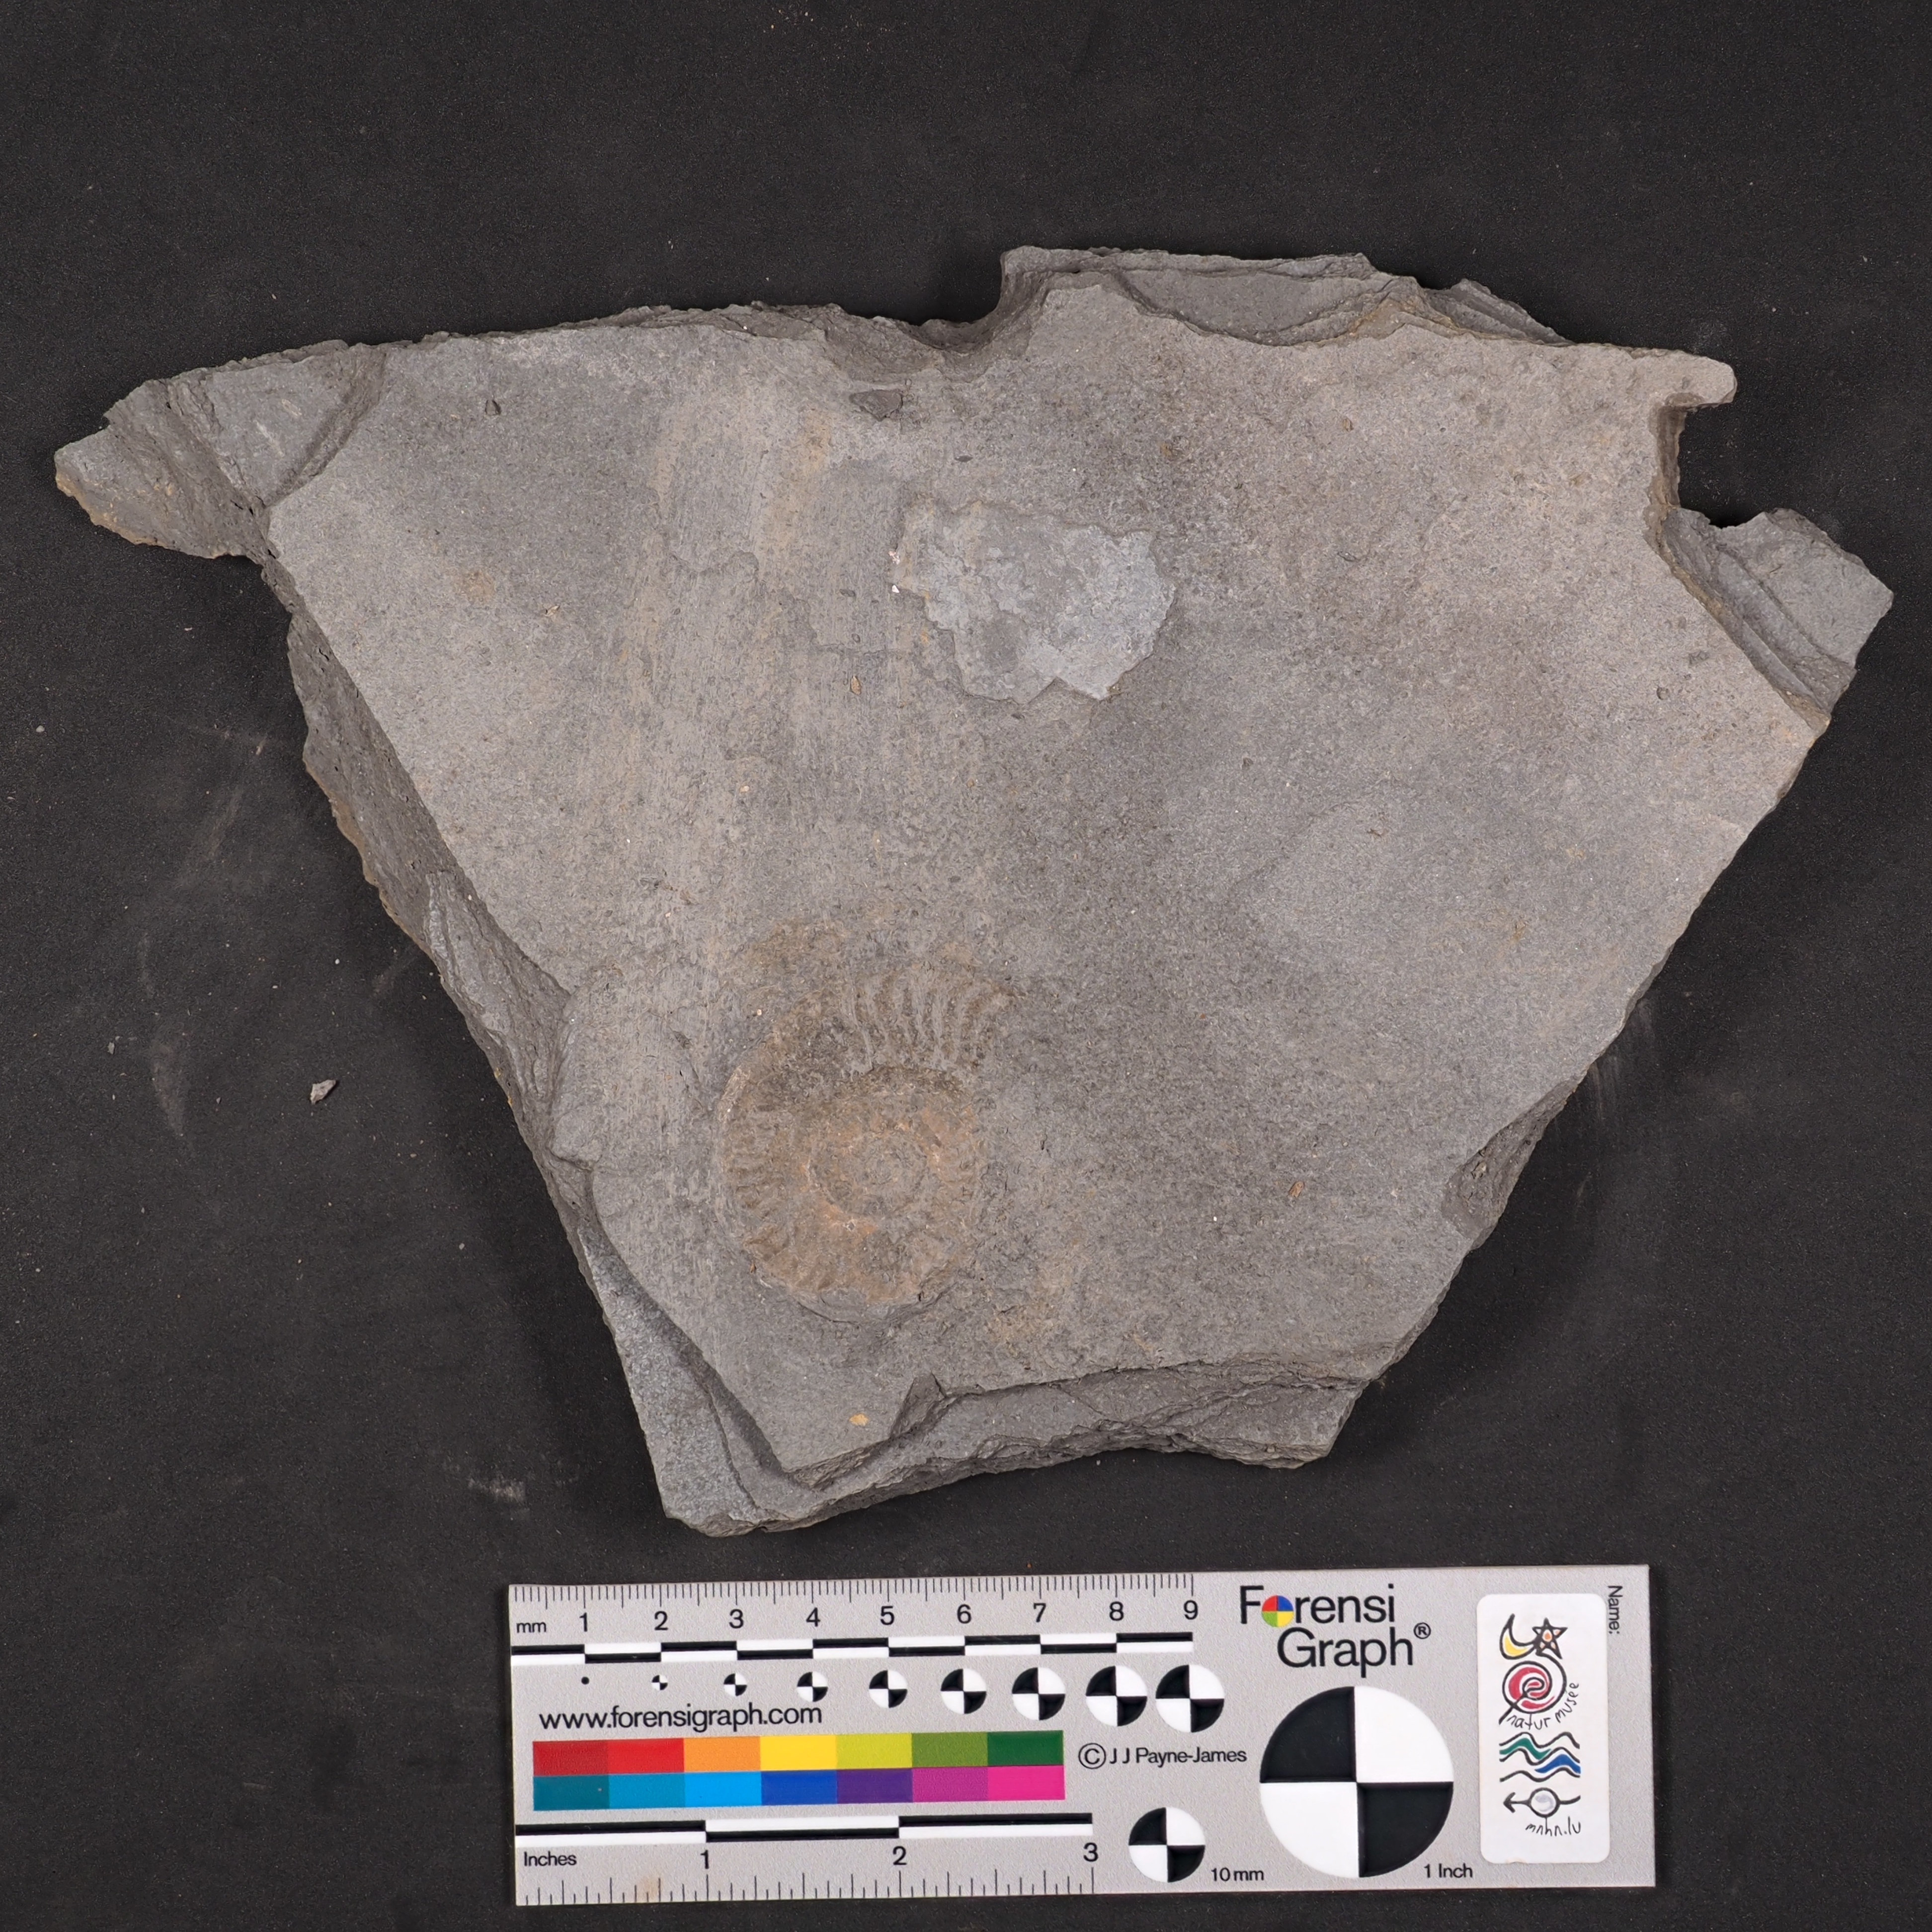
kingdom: Animalia
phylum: Mollusca
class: Cephalopoda
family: Hildoceratidae
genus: Hildaites
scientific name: Hildaites murleyi
